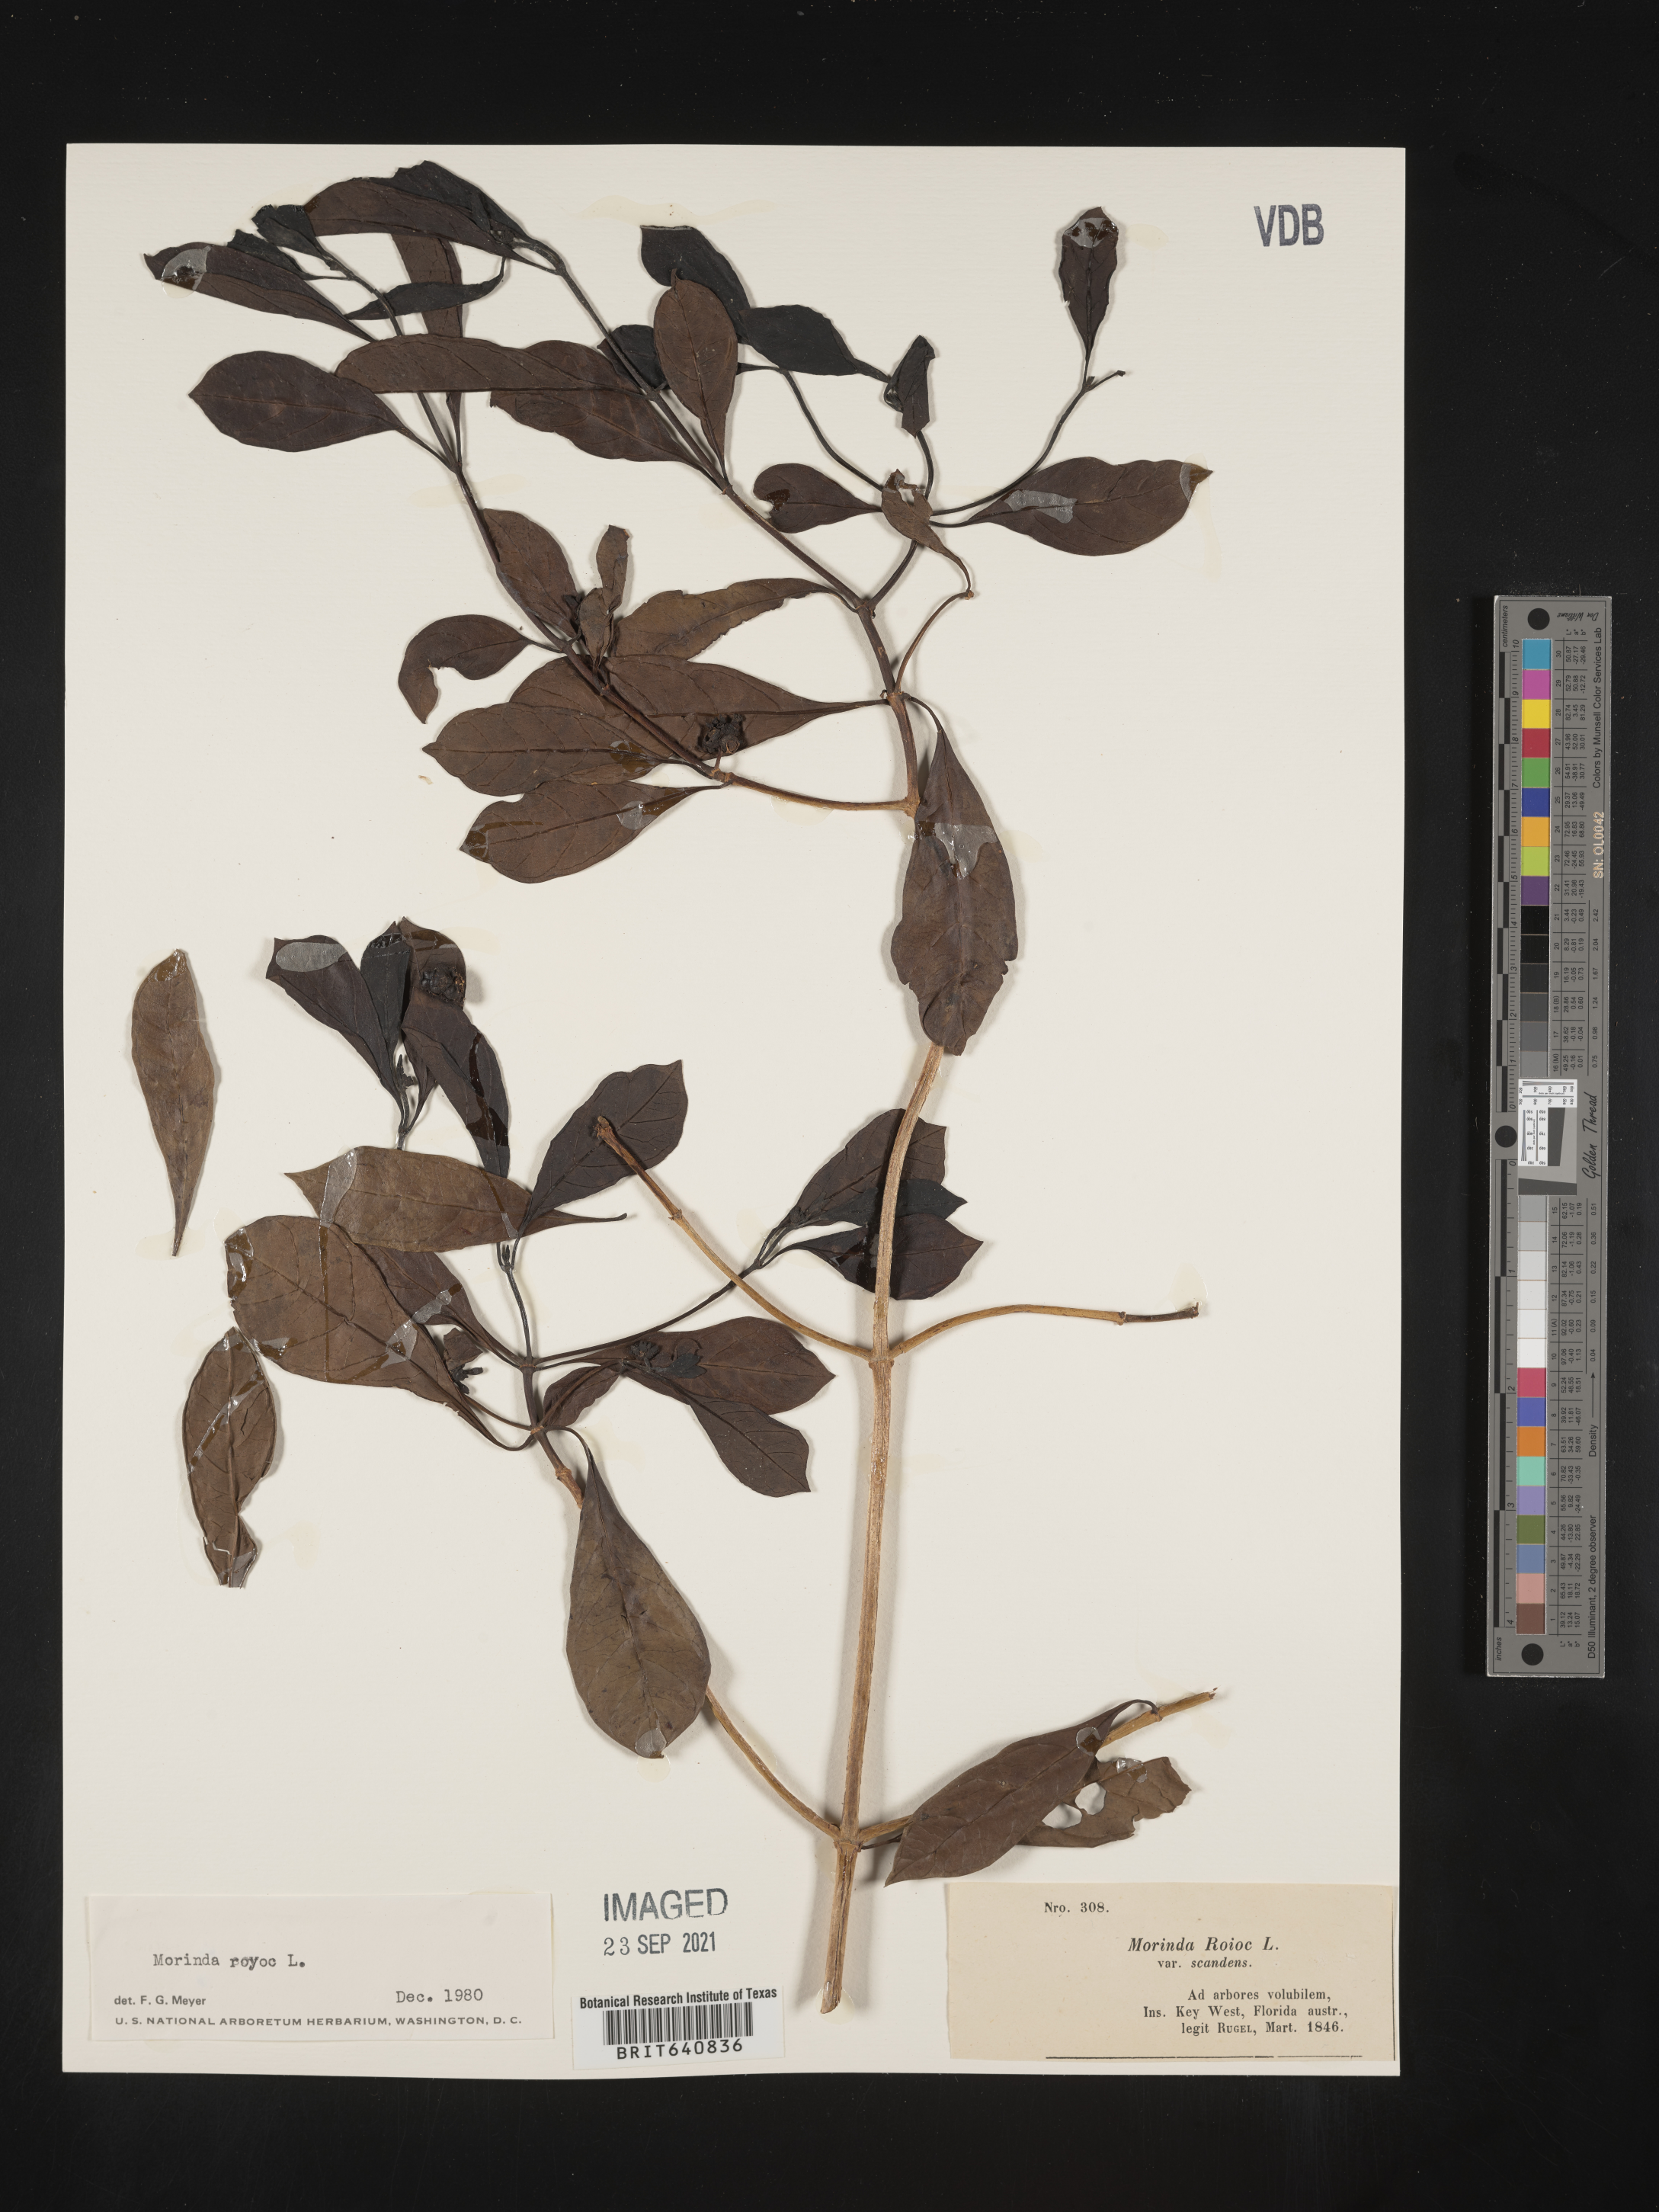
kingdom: Plantae
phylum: Tracheophyta
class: Magnoliopsida
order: Gentianales
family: Rubiaceae
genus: Morinda
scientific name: Morinda royoc
